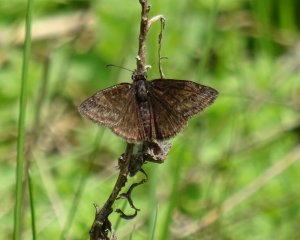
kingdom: Animalia
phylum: Arthropoda
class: Insecta
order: Lepidoptera
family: Hesperiidae
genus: Erynnis
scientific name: Erynnis
